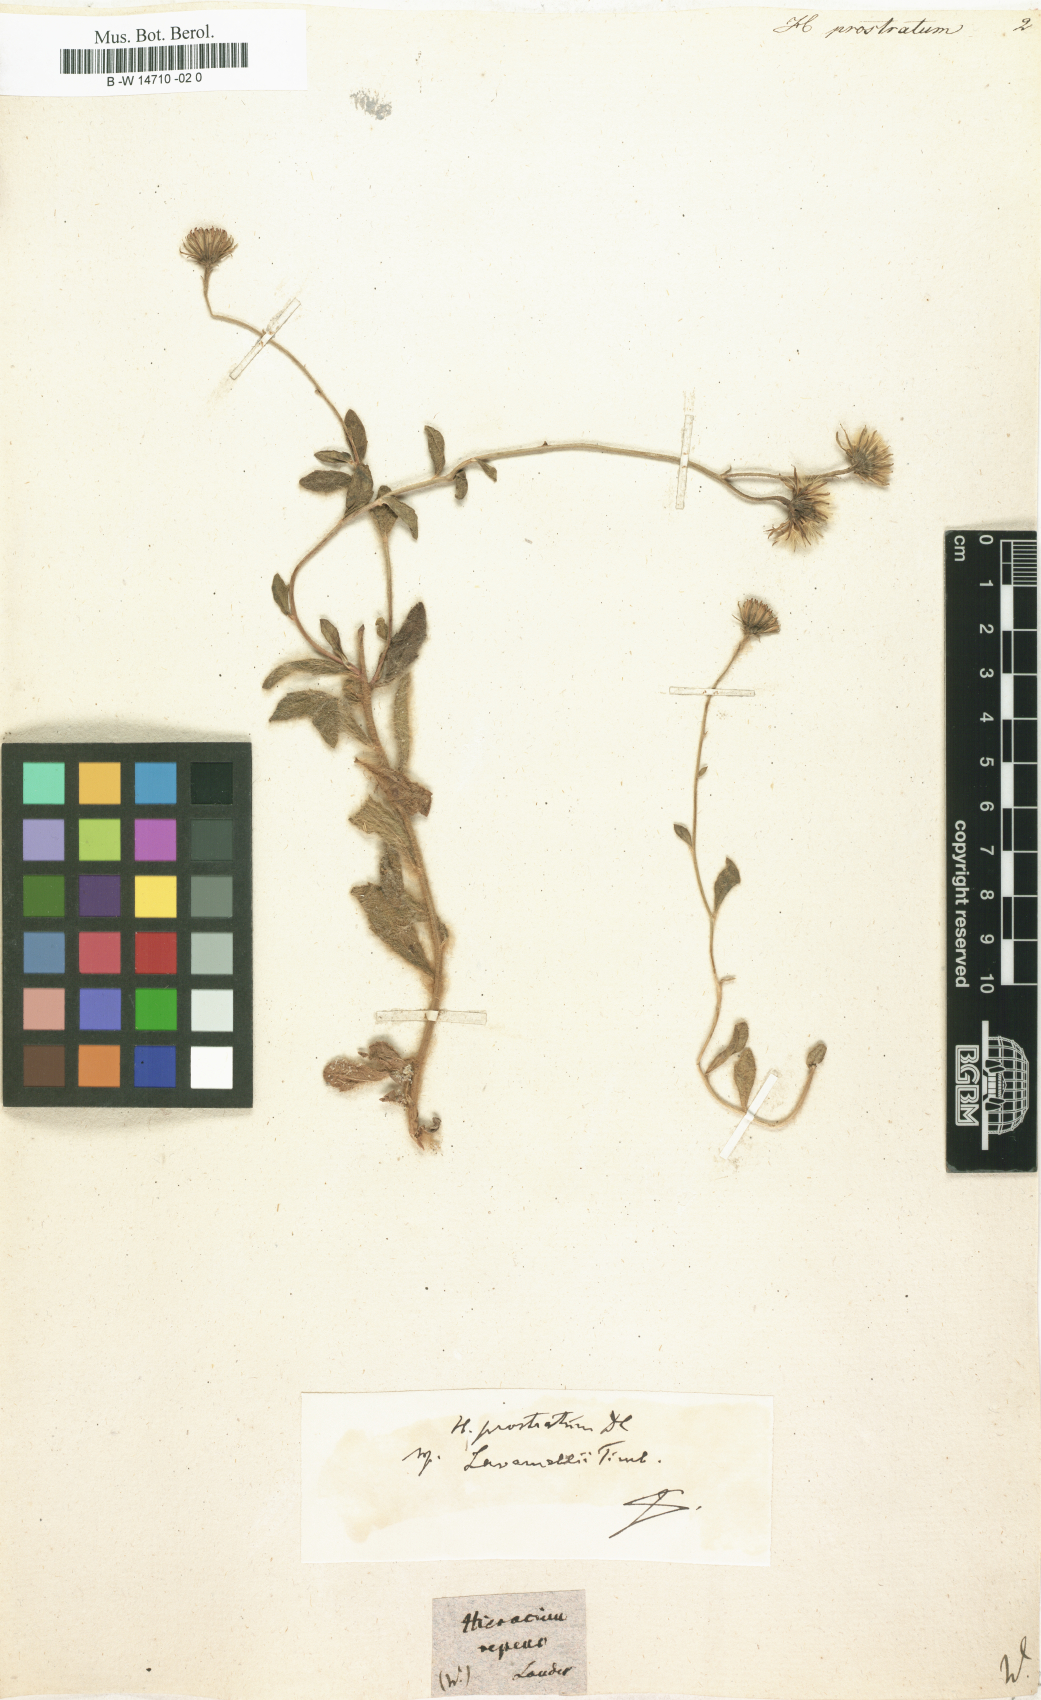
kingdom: Plantae
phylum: Tracheophyta
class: Magnoliopsida
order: Asterales
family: Asteraceae
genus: Hieracium
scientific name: Hieracium prostratum
